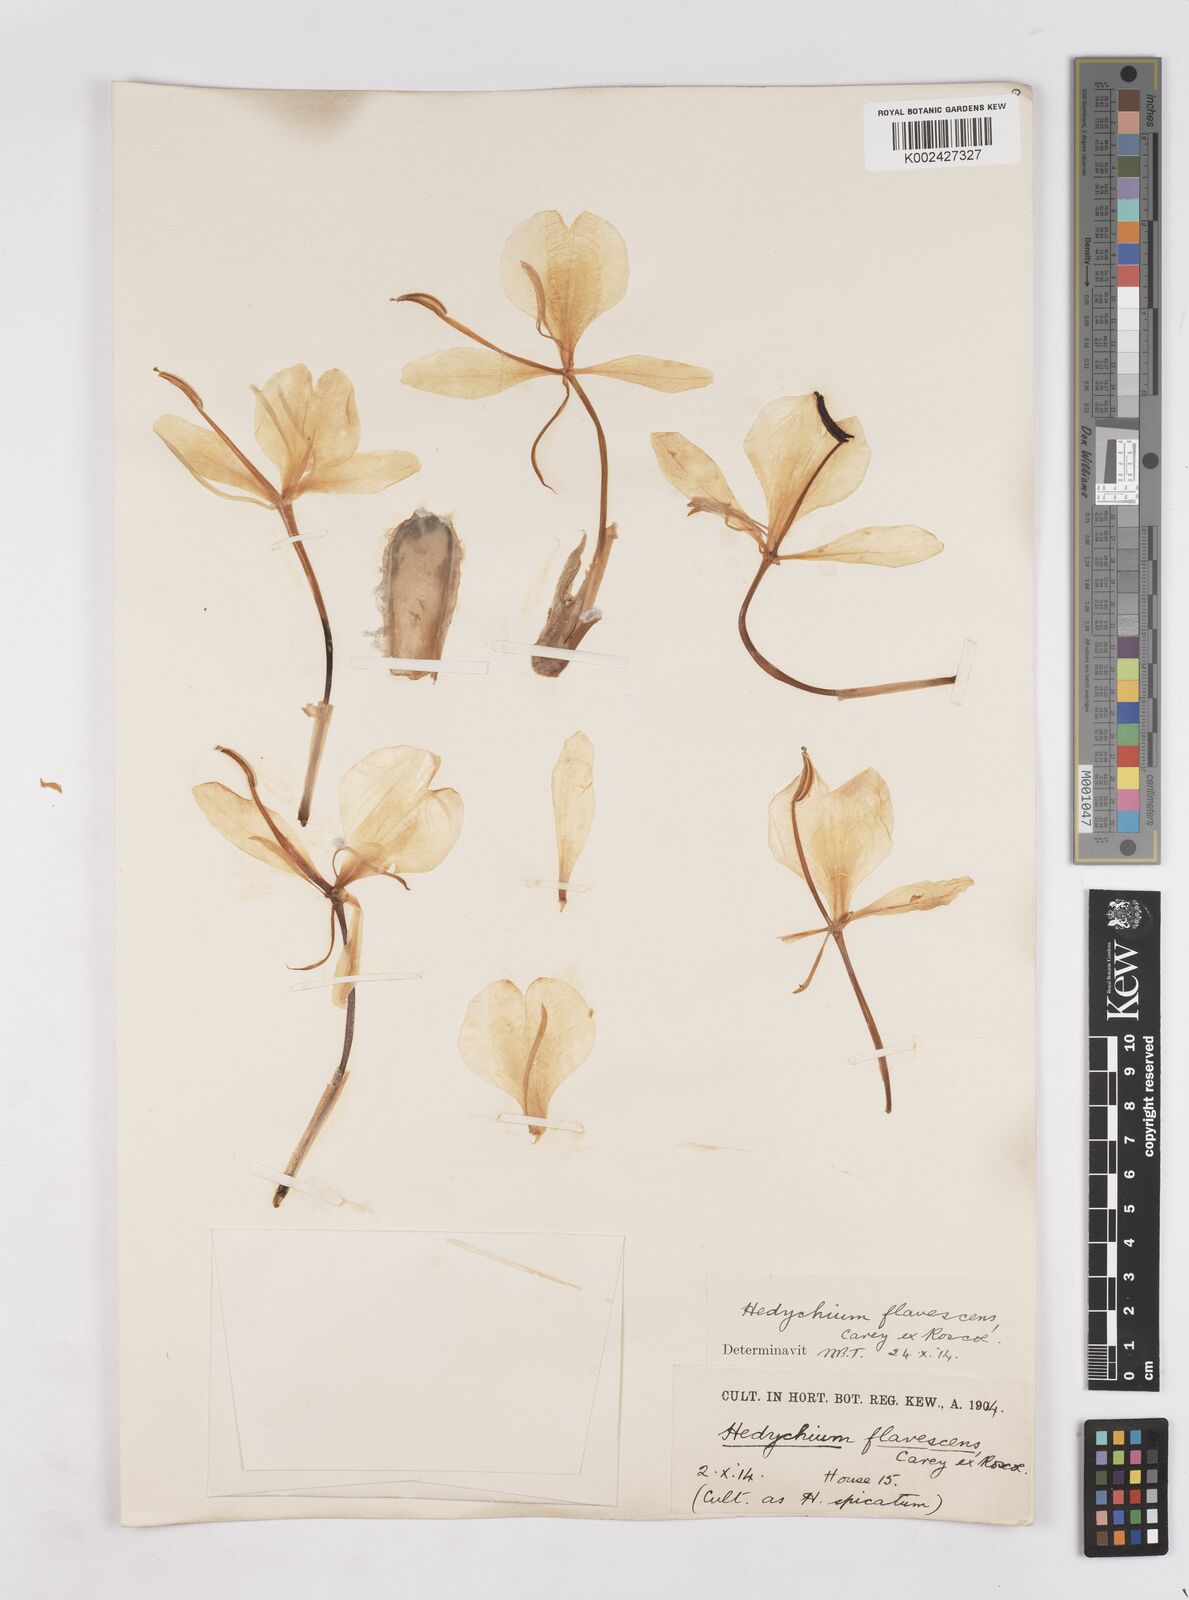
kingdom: Plantae
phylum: Tracheophyta
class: Liliopsida
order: Zingiberales
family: Zingiberaceae
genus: Hedychium
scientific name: Hedychium flavescens
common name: Yellow ginger
